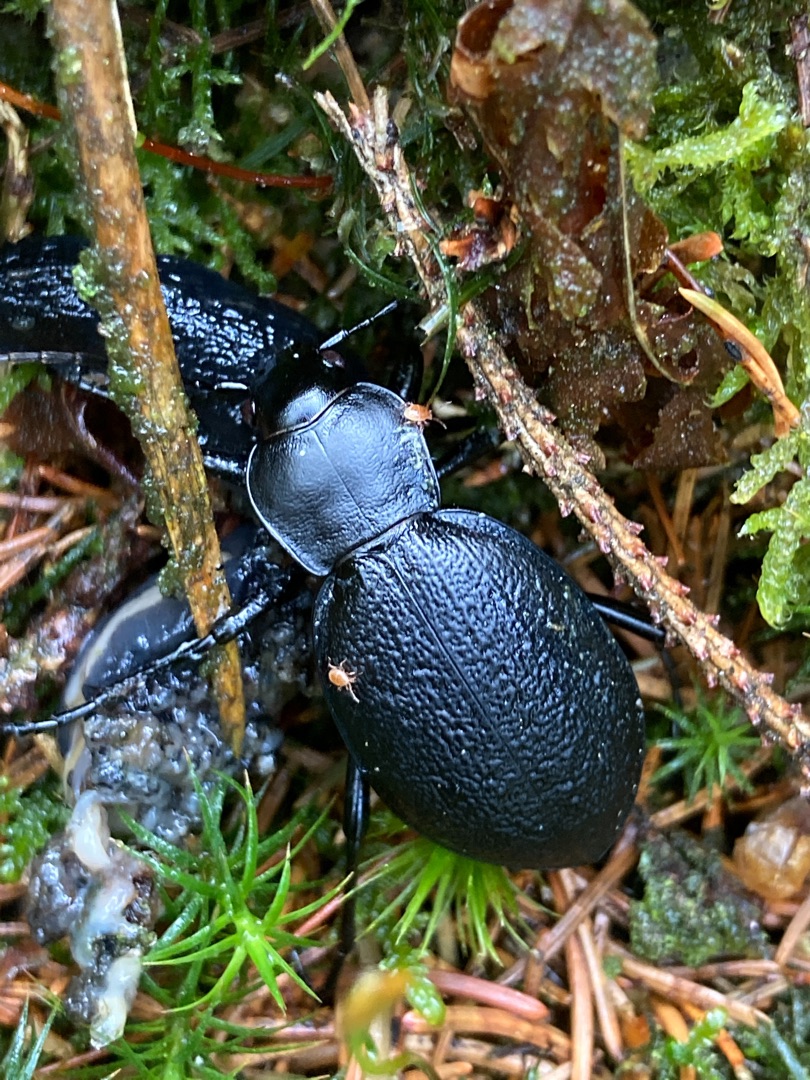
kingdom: Animalia
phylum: Arthropoda
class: Insecta
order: Coleoptera
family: Carabidae
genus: Carabus
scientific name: Carabus coriaceus
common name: Læderløber
